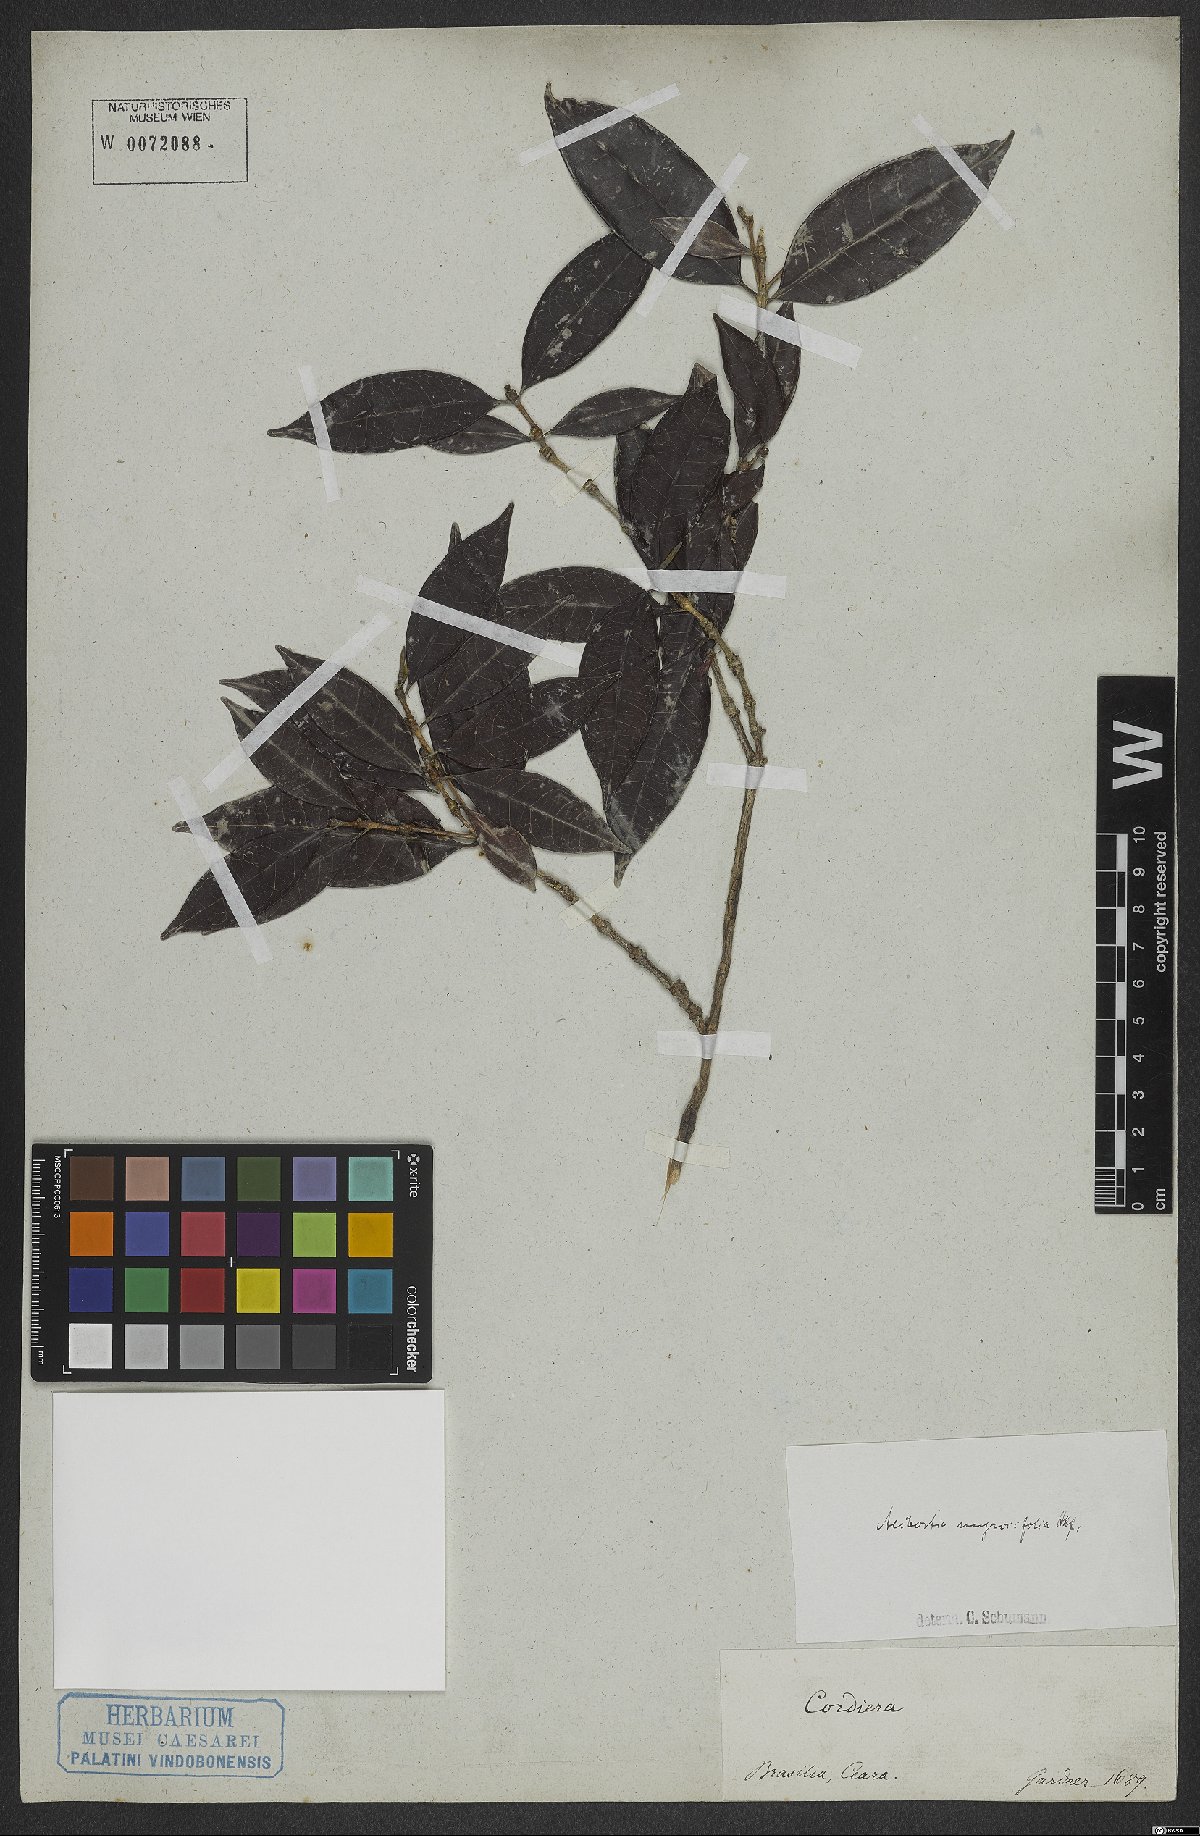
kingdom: Plantae
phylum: Tracheophyta
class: Magnoliopsida
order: Gentianales
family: Rubiaceae
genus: Cordiera
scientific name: Cordiera myrciifolia
